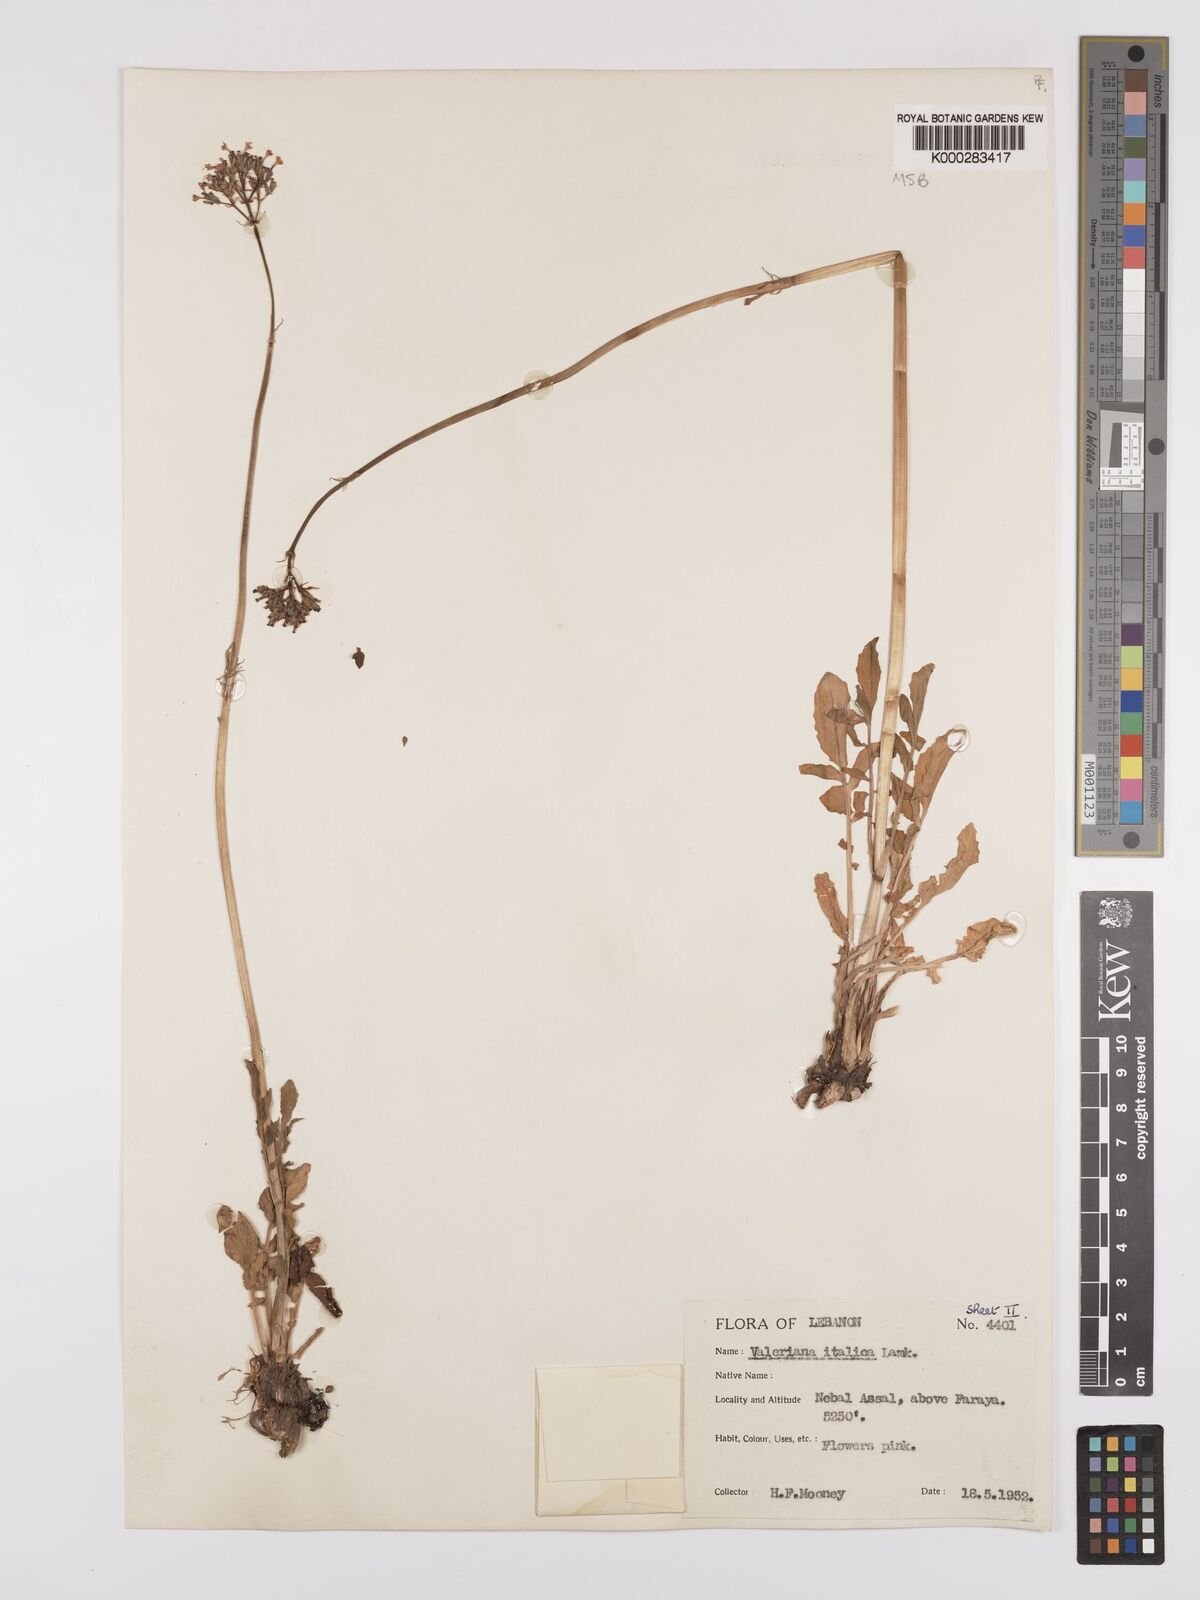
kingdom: Plantae
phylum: Tracheophyta
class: Magnoliopsida
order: Dipsacales
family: Caprifoliaceae
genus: Valeriana
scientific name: Valeriana dioscoridis
